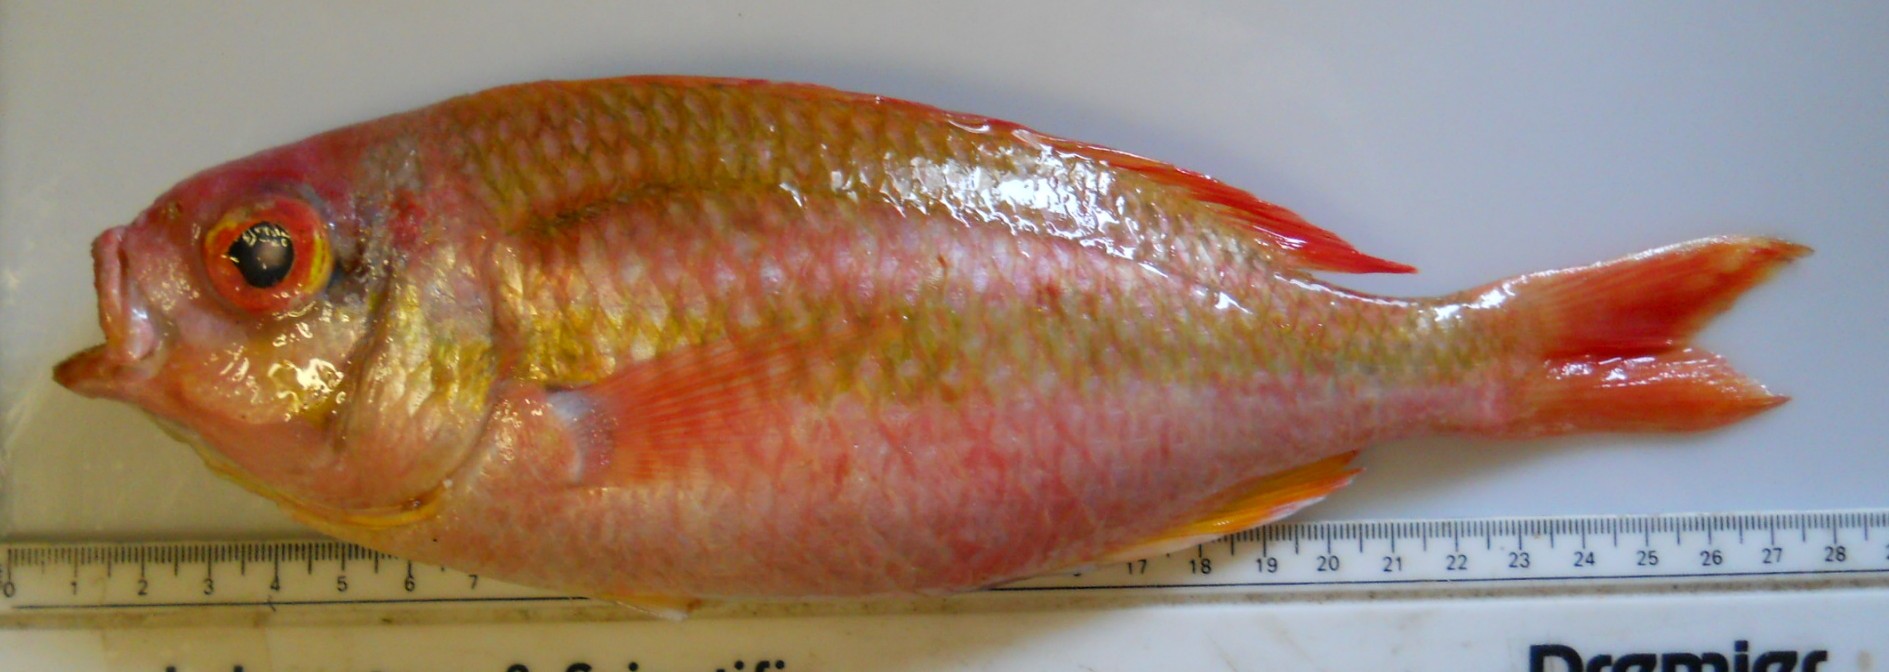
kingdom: Animalia
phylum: Chordata
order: Perciformes
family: Nemipteridae
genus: Parascolopsis
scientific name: Parascolopsis eriomma
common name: Rosy dwarf monocle bream
